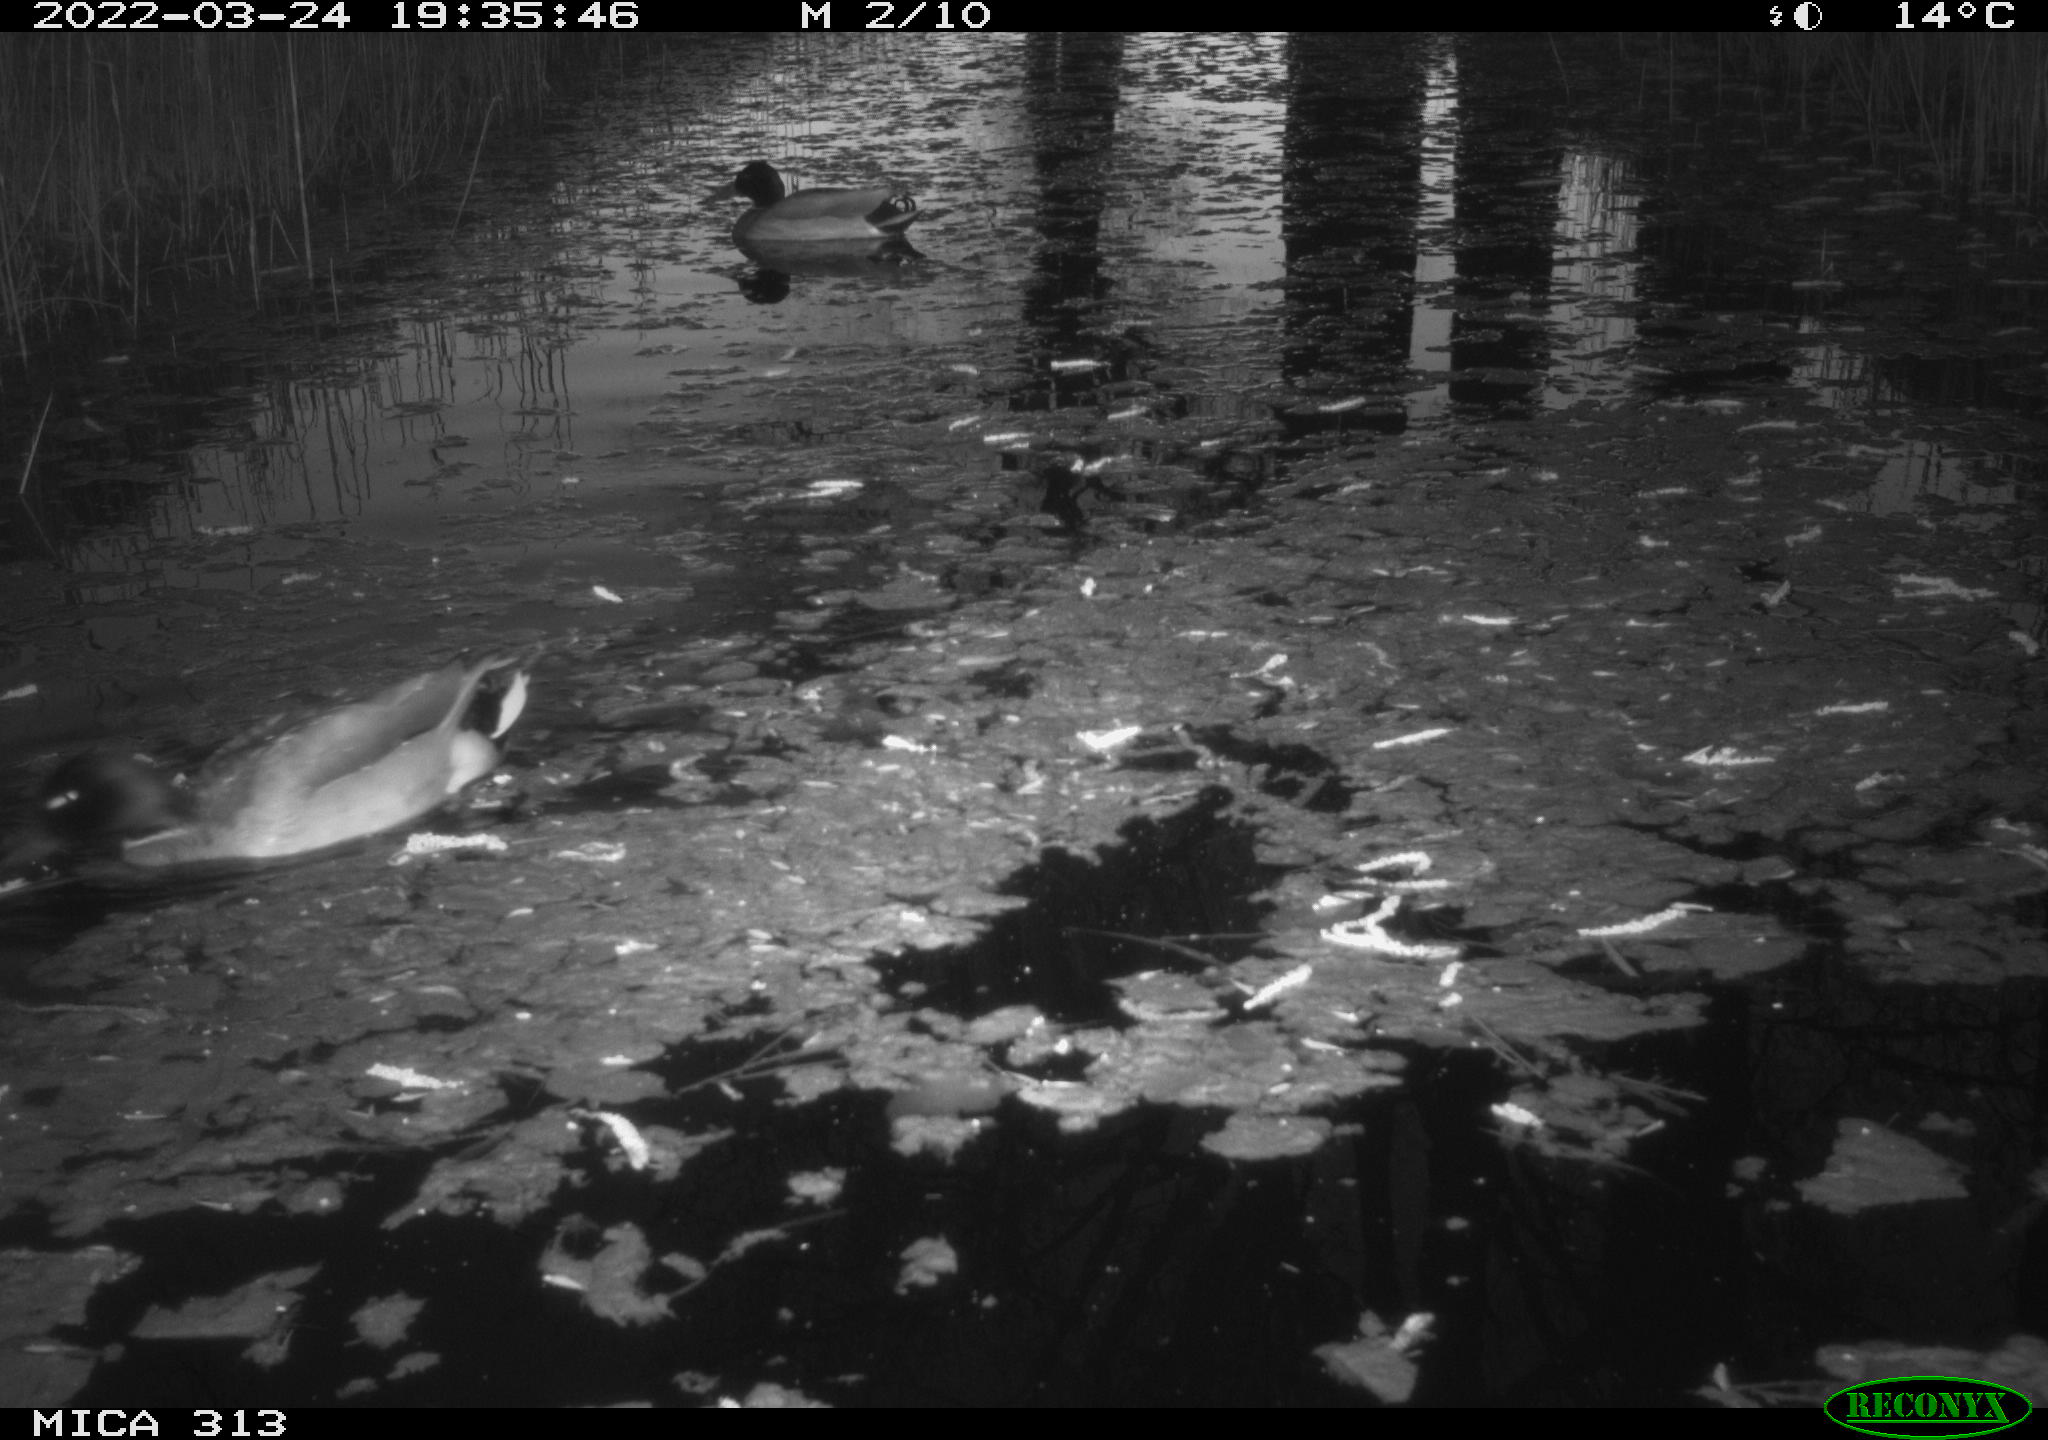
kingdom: Animalia
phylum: Chordata
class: Aves
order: Anseriformes
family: Anatidae
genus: Anas
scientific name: Anas platyrhynchos
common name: Mallard
